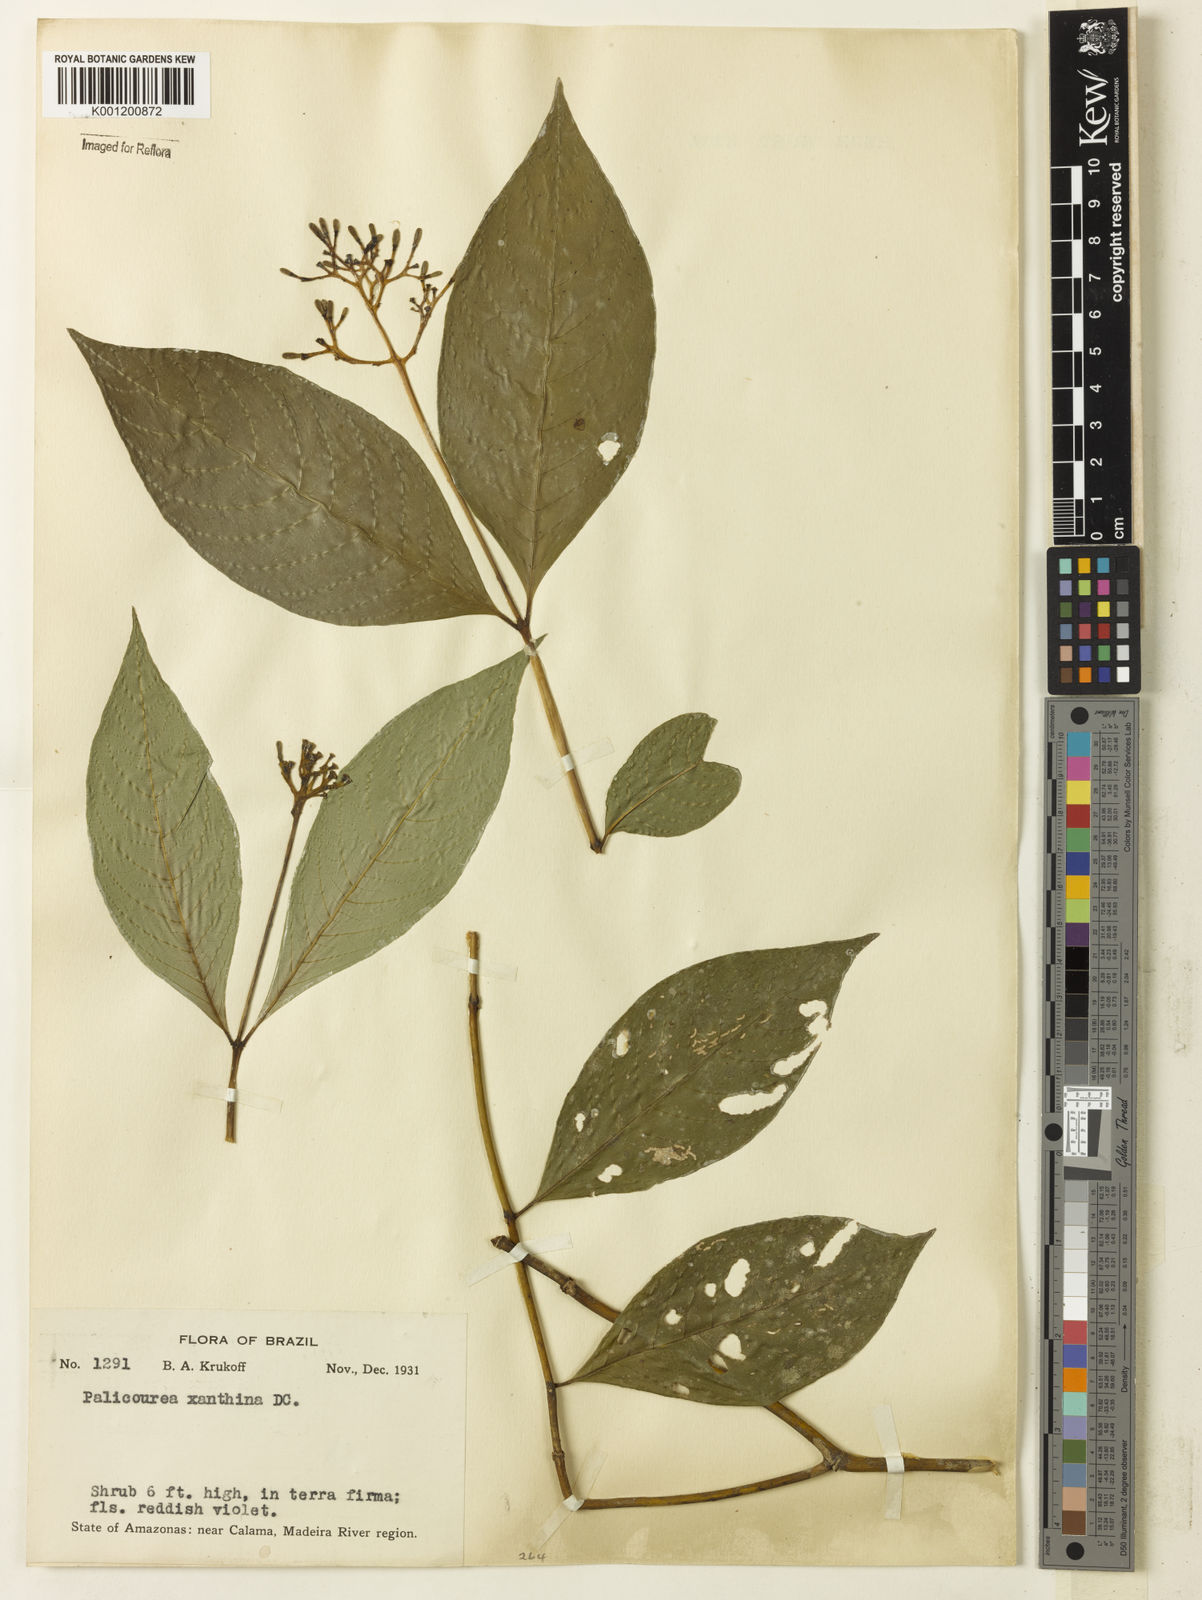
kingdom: Plantae
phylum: Tracheophyta
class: Magnoliopsida
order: Gentianales
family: Rubiaceae
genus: Palicourea
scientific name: Palicourea longiflora
